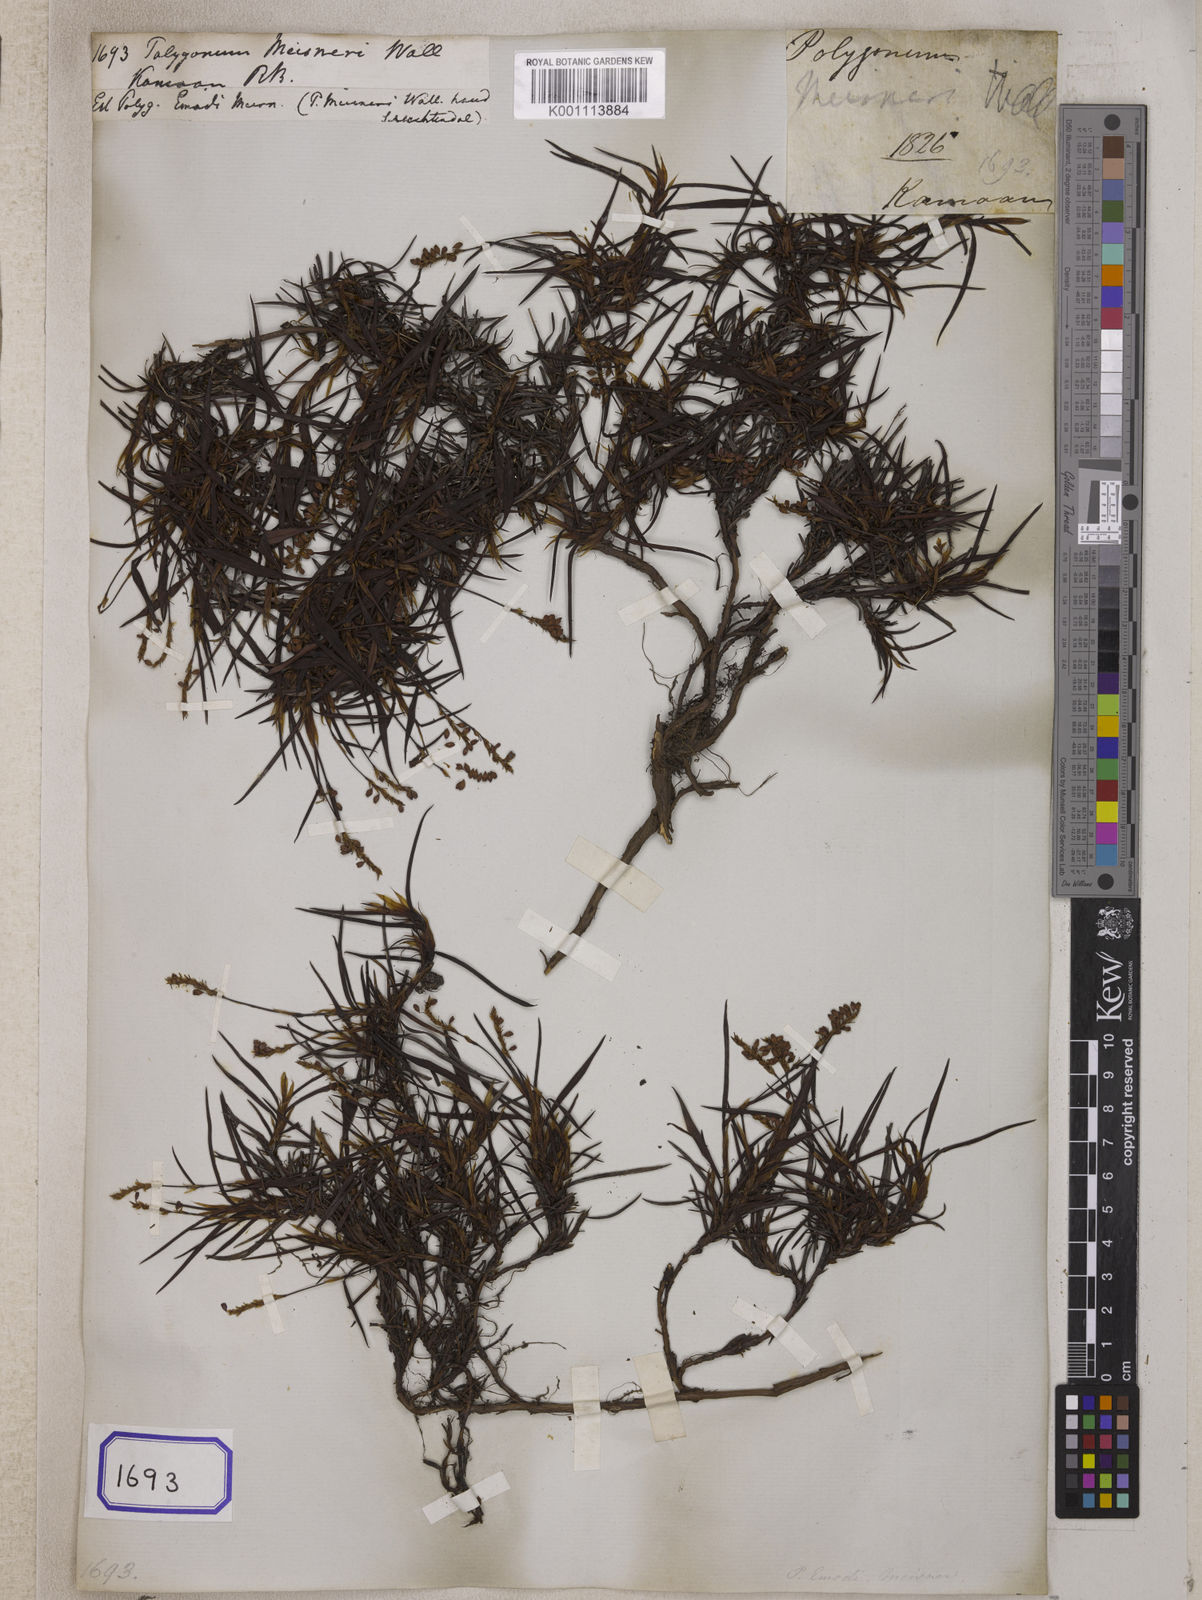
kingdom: Plantae
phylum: Tracheophyta
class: Magnoliopsida
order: Caryophyllales
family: Polygonaceae
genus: Bistorta
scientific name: Bistorta emodi
